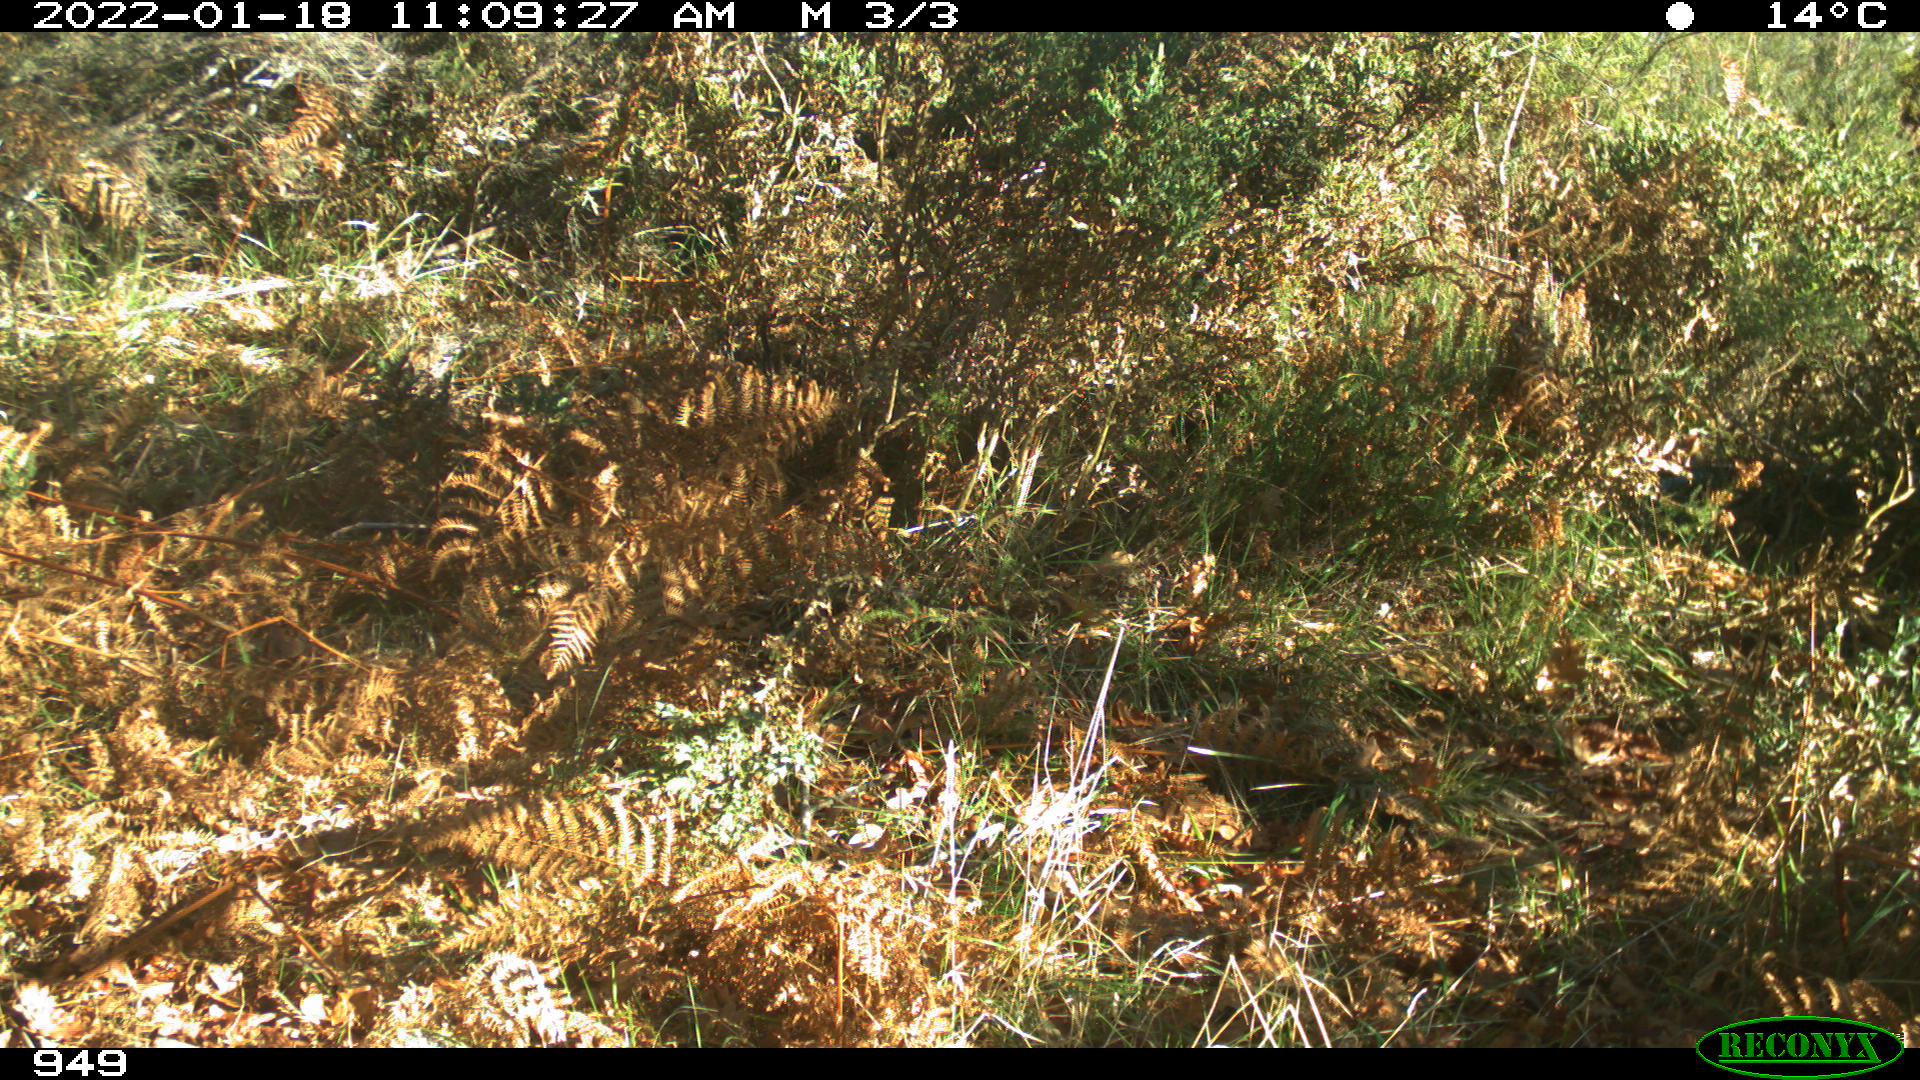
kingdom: Animalia
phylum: Chordata
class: Mammalia
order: Artiodactyla
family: Suidae
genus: Sus
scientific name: Sus scrofa
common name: Wild boar
